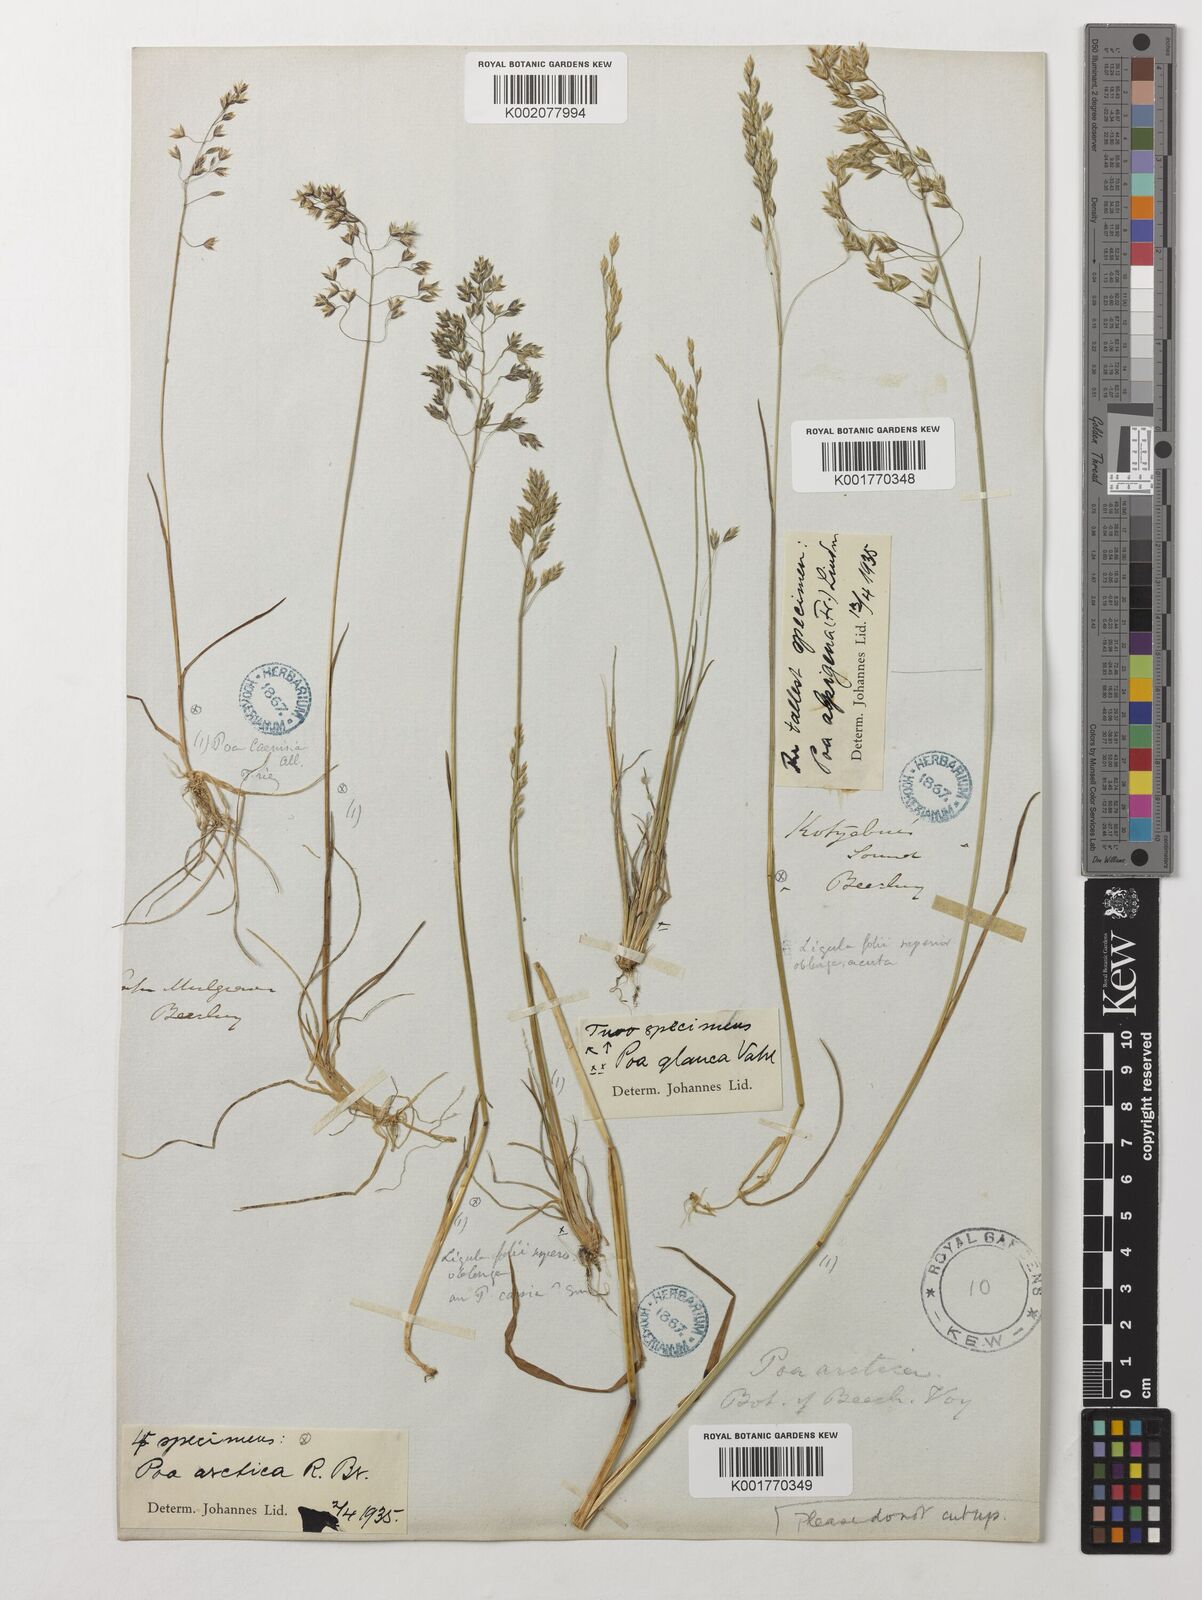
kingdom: Plantae
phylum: Tracheophyta
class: Liliopsida
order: Poales
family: Poaceae
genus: Poa
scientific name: Poa arctica
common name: Arctic bluegrass
